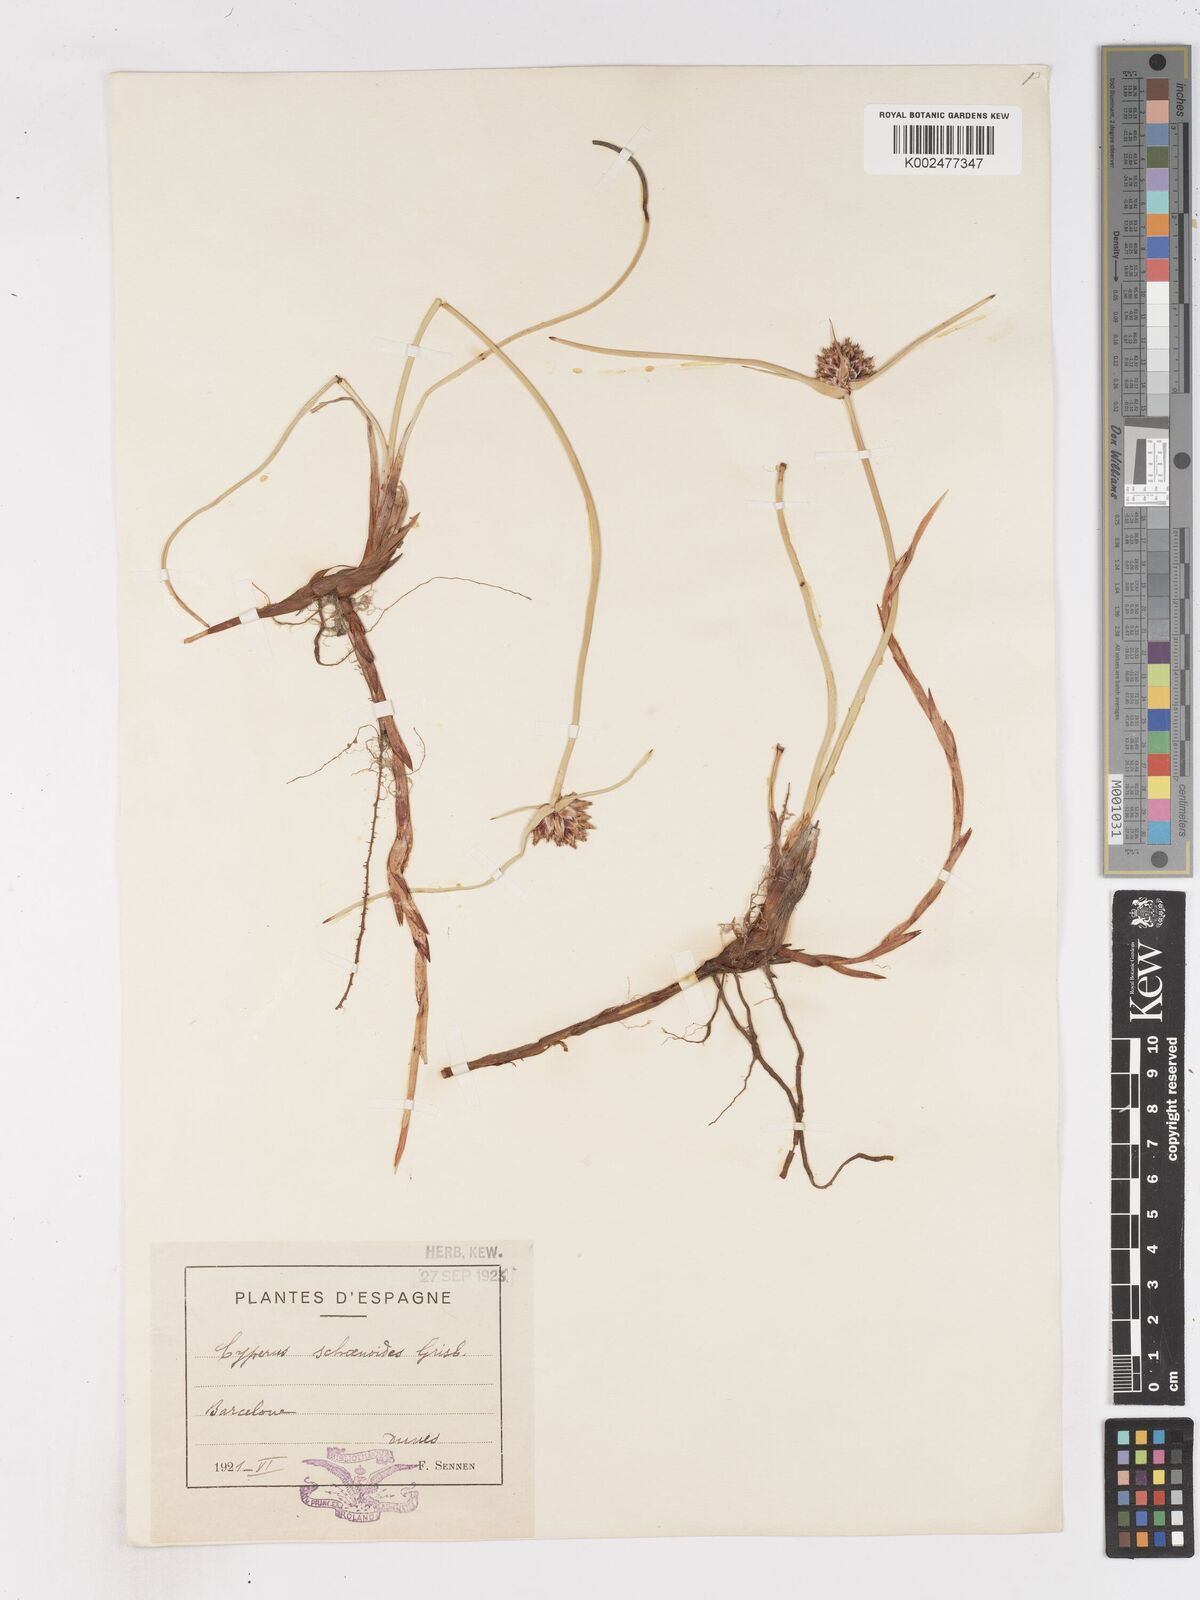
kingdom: Plantae
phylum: Tracheophyta
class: Liliopsida
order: Poales
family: Cyperaceae
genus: Cyperus
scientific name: Cyperus capitatus
